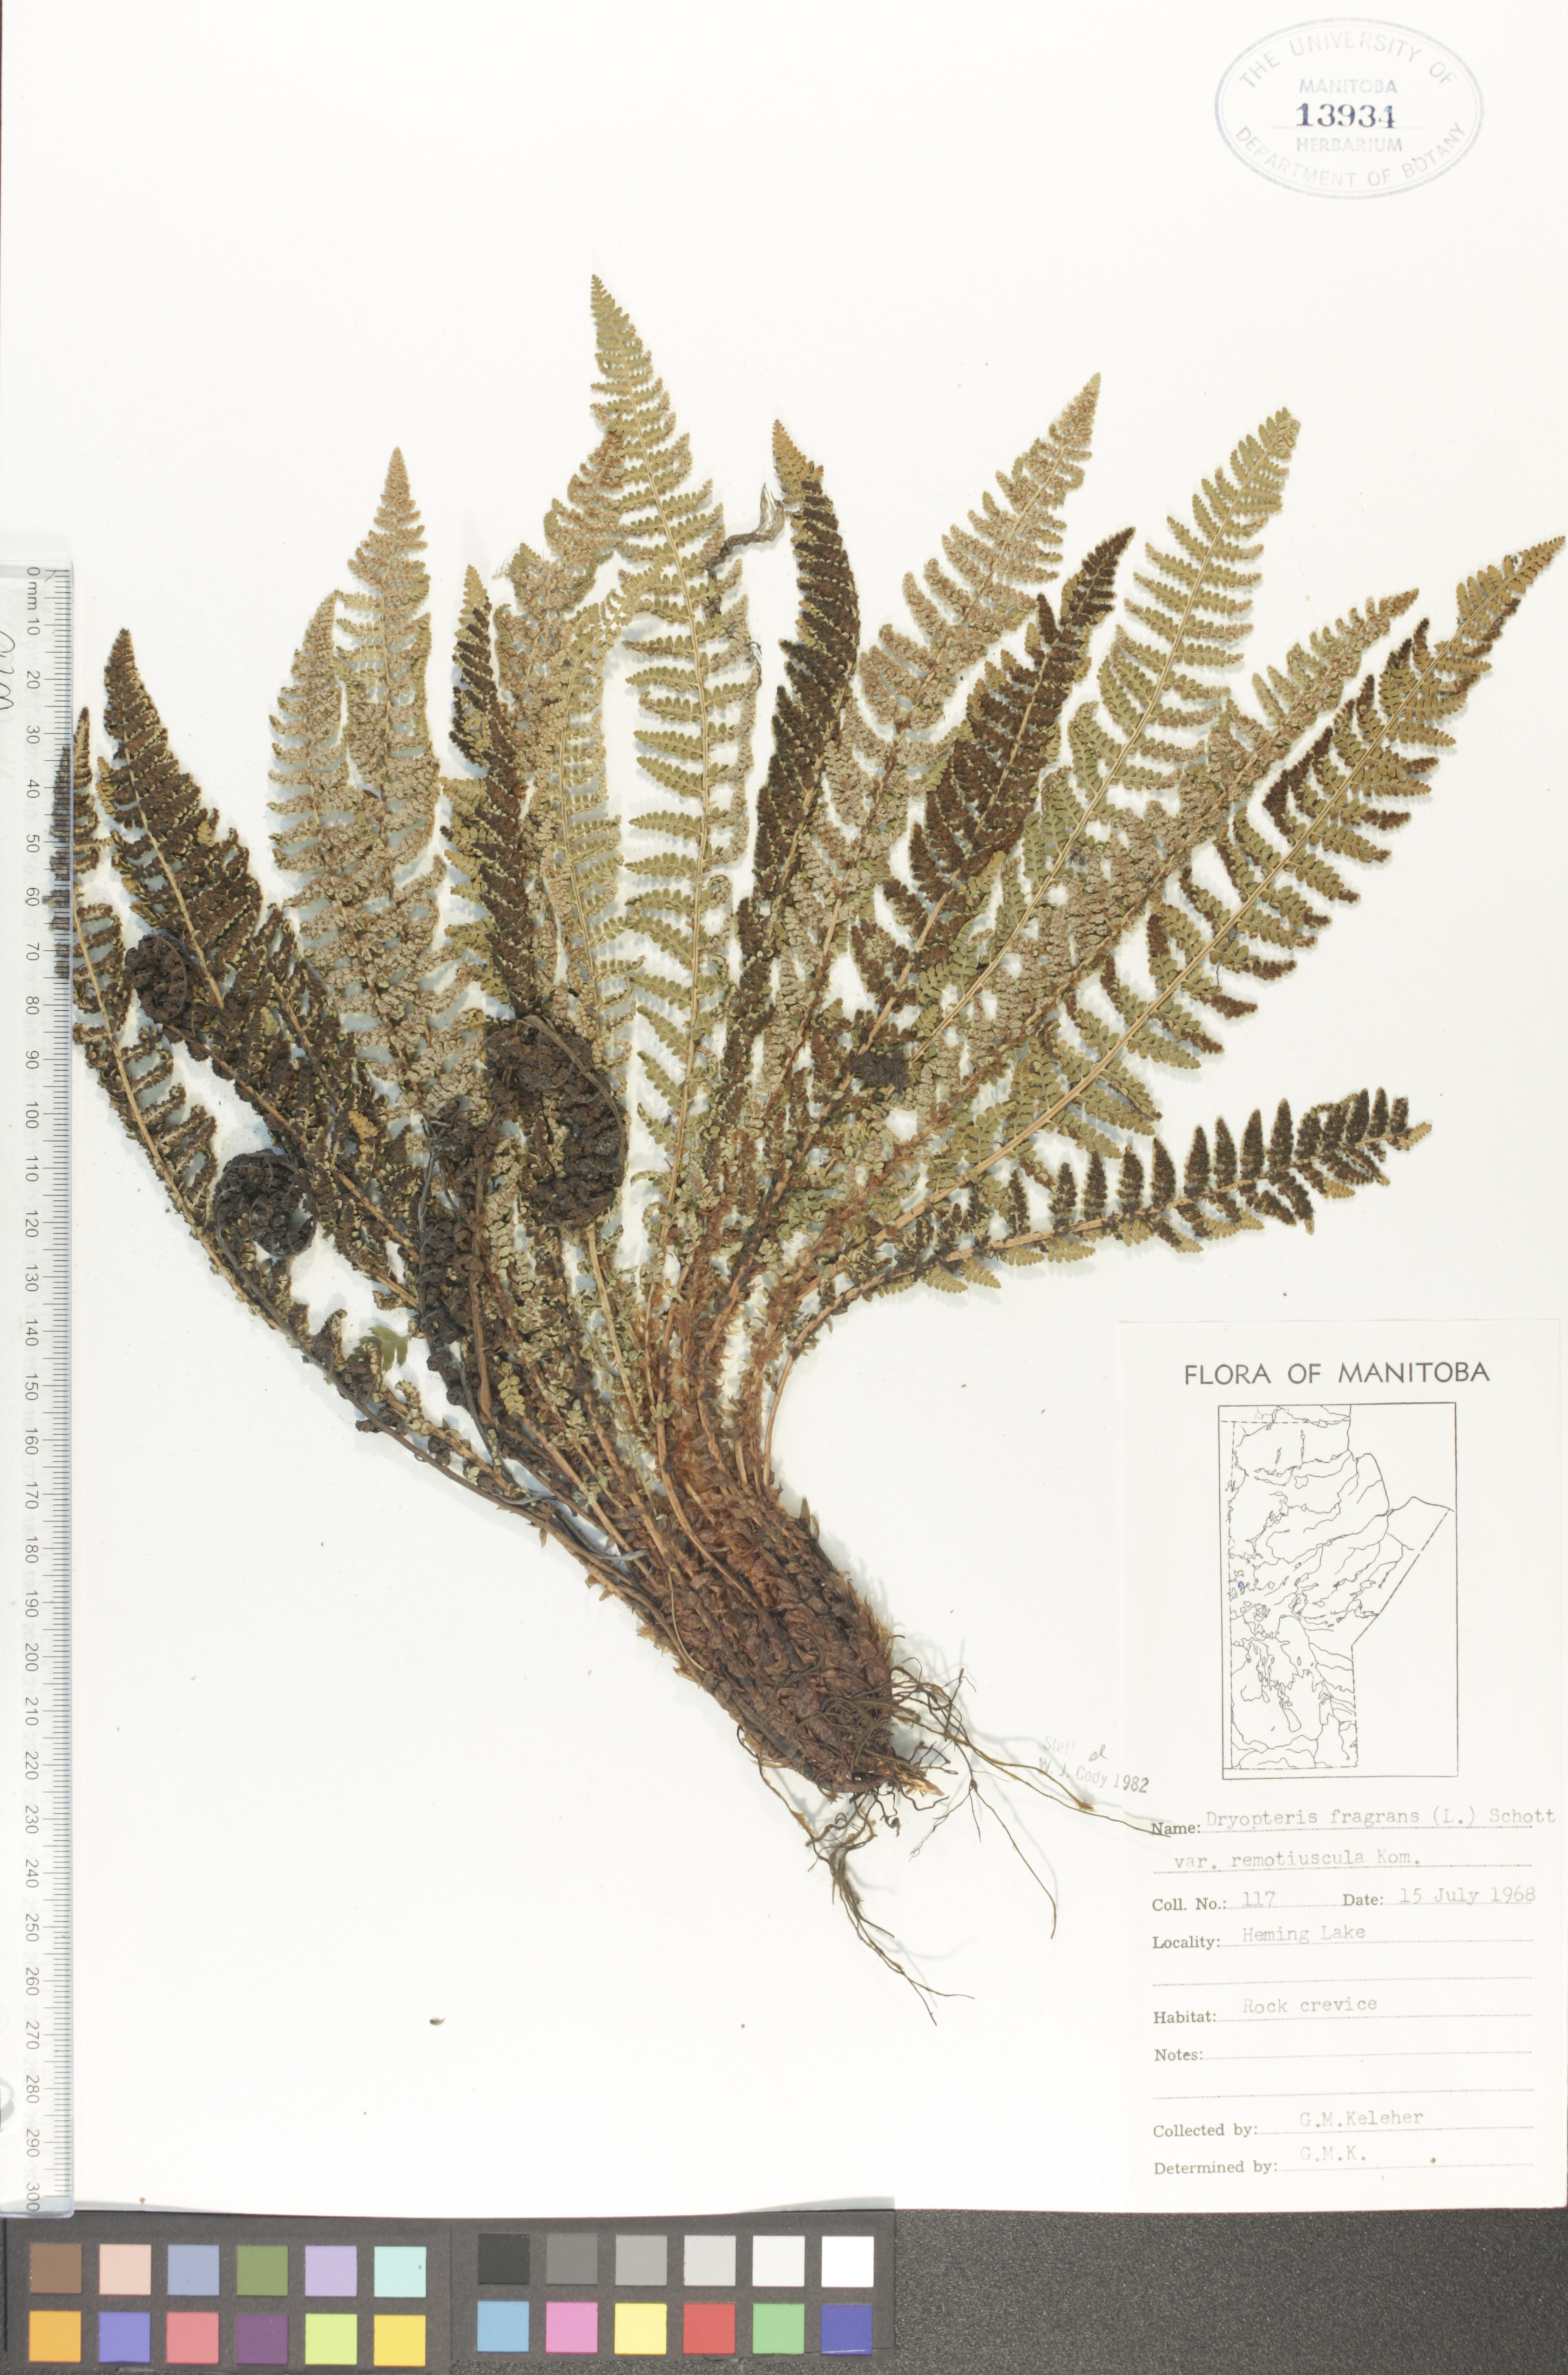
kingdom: Plantae
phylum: Tracheophyta
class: Polypodiopsida
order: Polypodiales
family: Dryopteridaceae
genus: Dryopteris
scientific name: Dryopteris fragrans
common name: Fragrant wood fern
